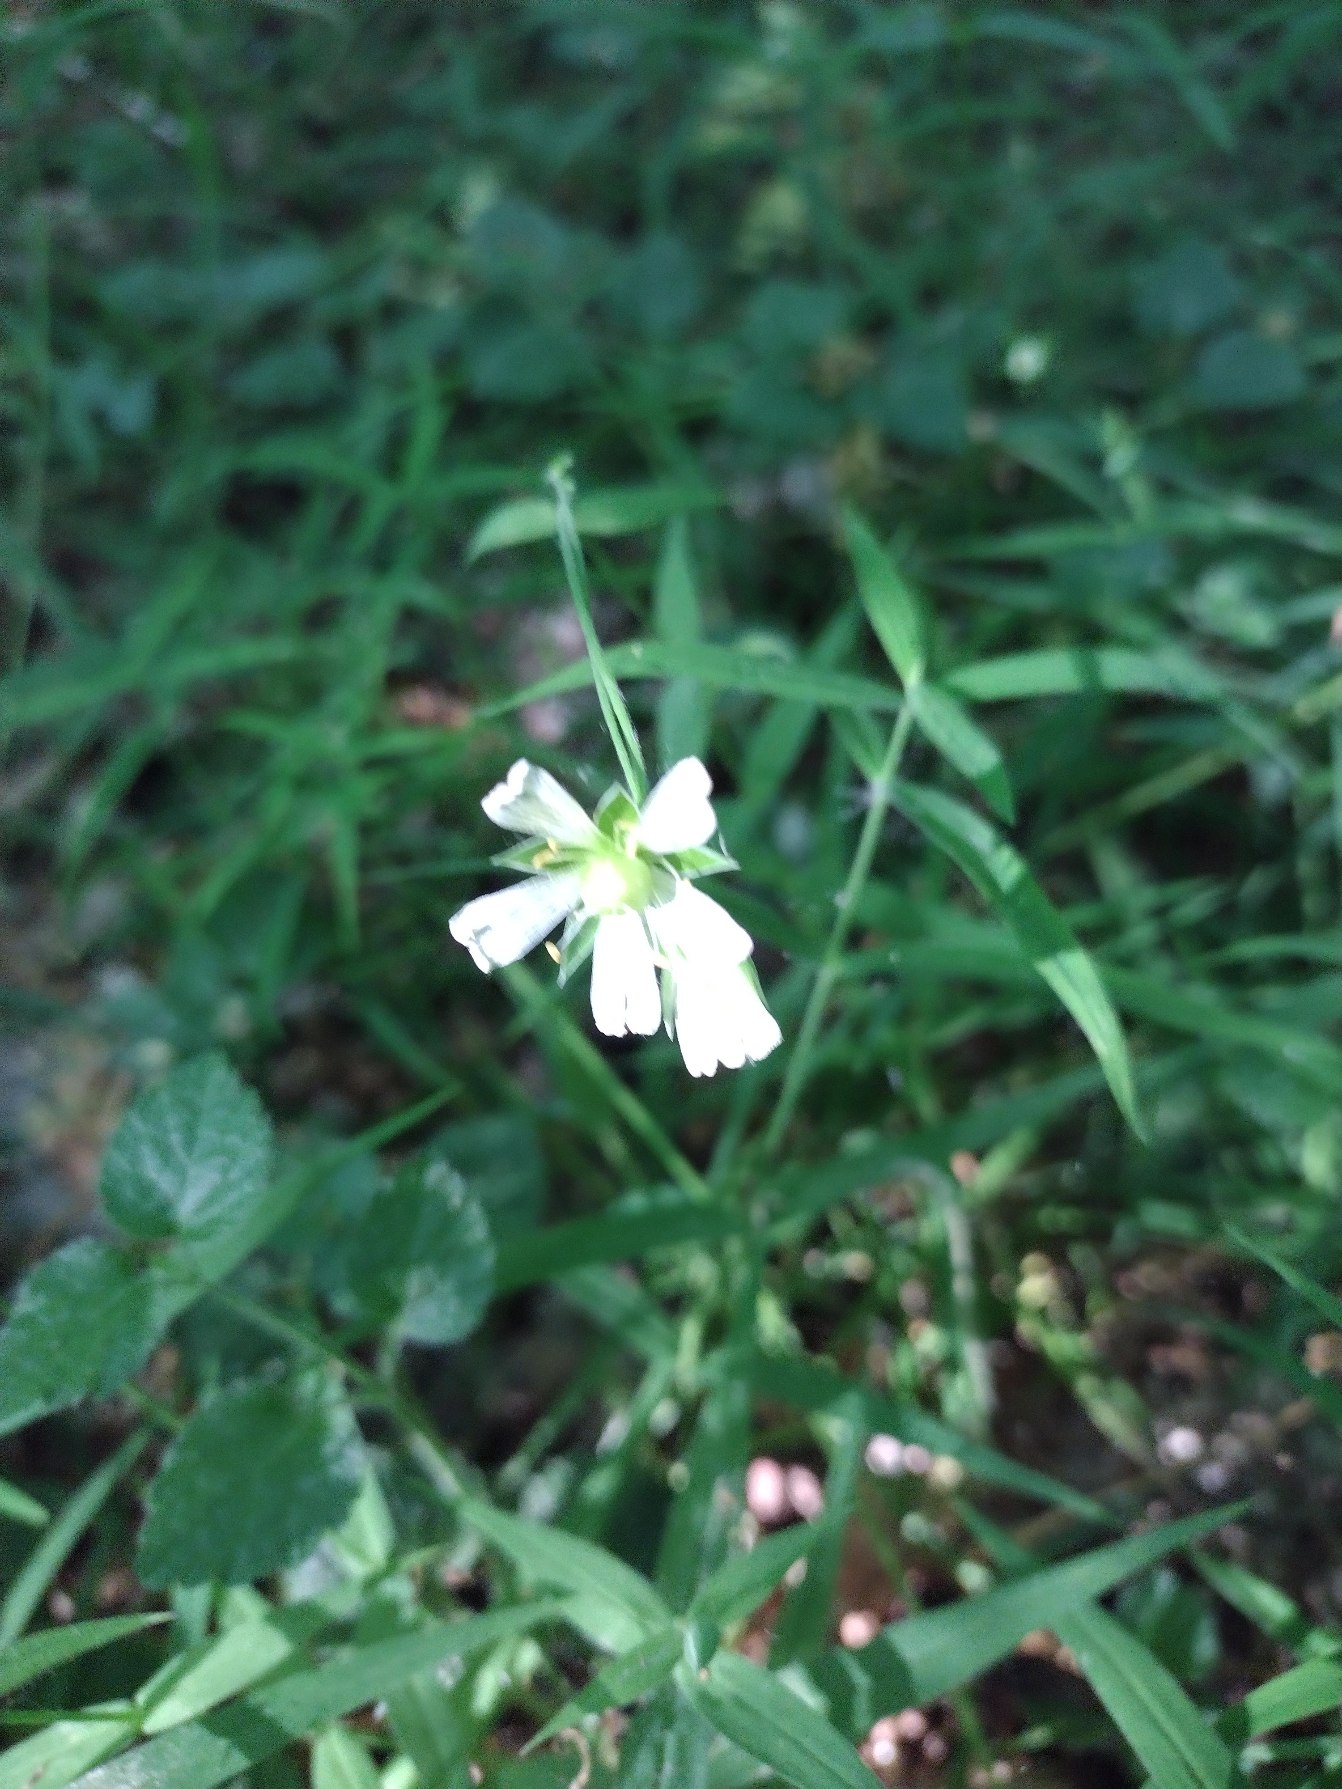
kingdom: Plantae
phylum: Tracheophyta
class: Magnoliopsida
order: Caryophyllales
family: Caryophyllaceae
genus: Rabelera
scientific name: Rabelera holostea
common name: Stor fladstjerne
